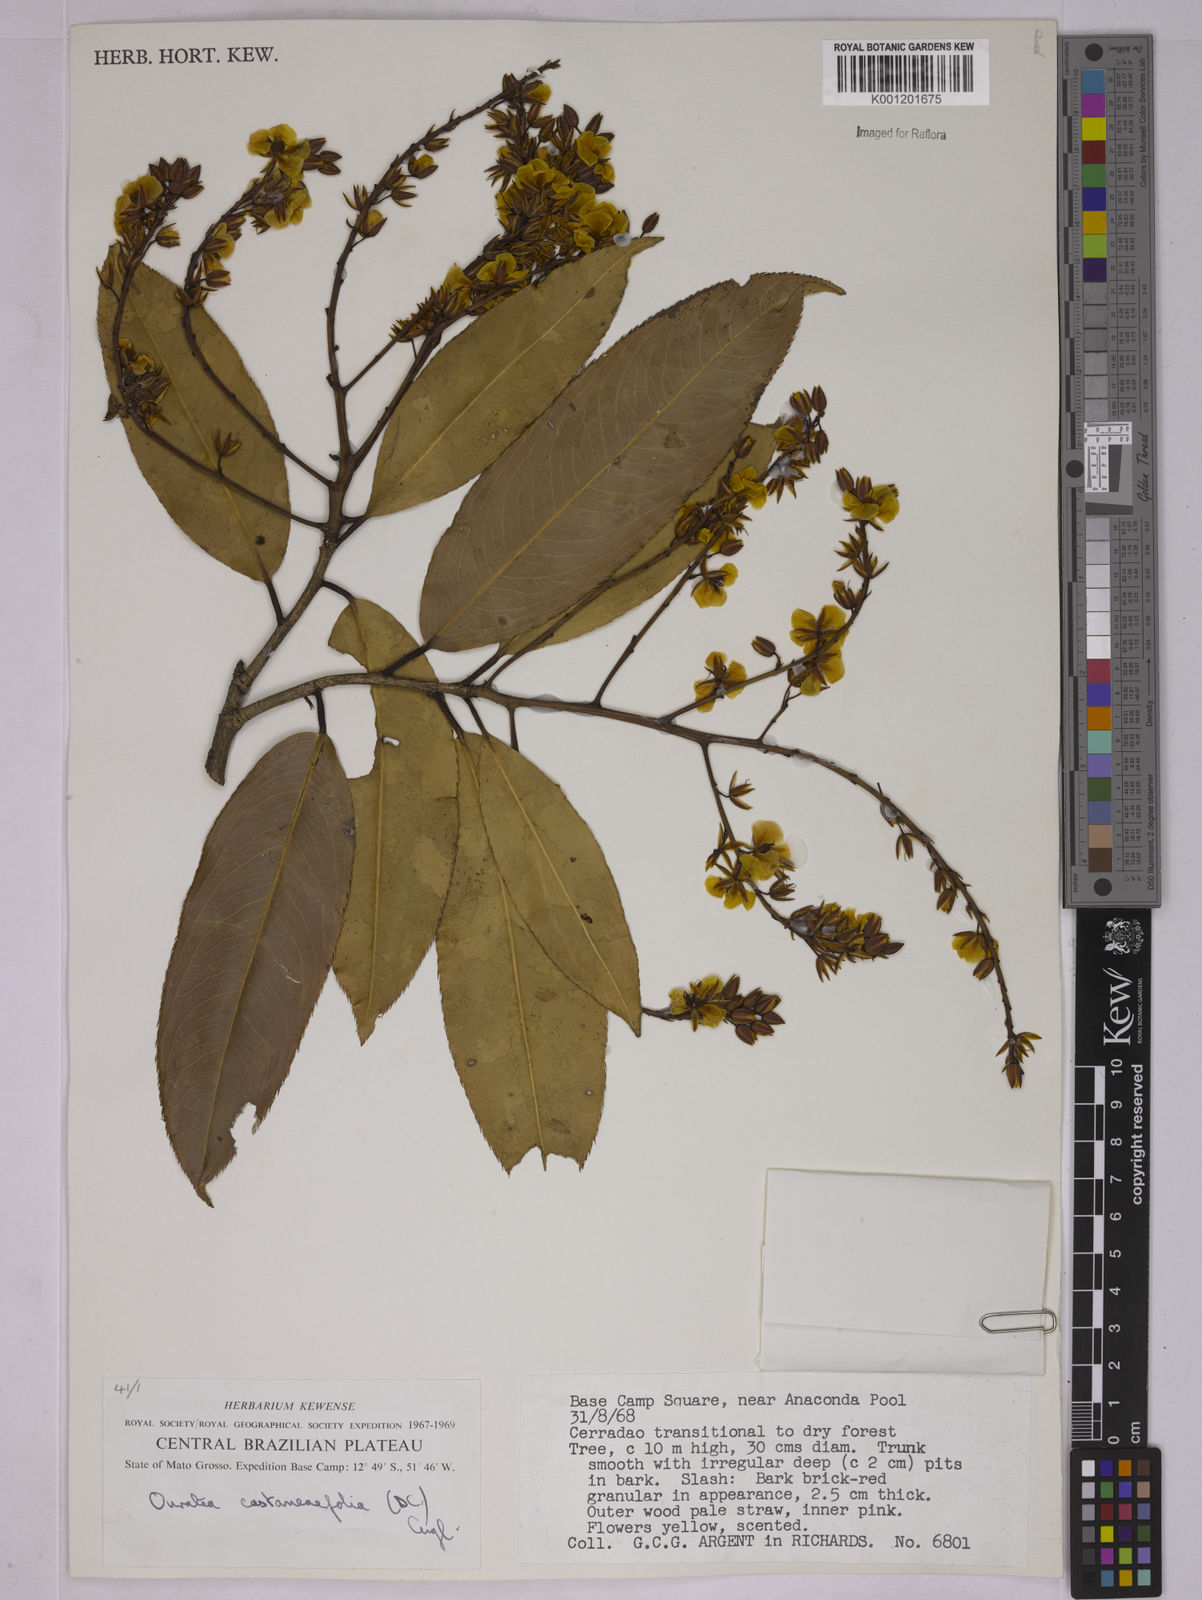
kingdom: Plantae
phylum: Tracheophyta
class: Magnoliopsida
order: Malpighiales
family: Ochnaceae
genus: Ouratea
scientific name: Ouratea castaneifolia
